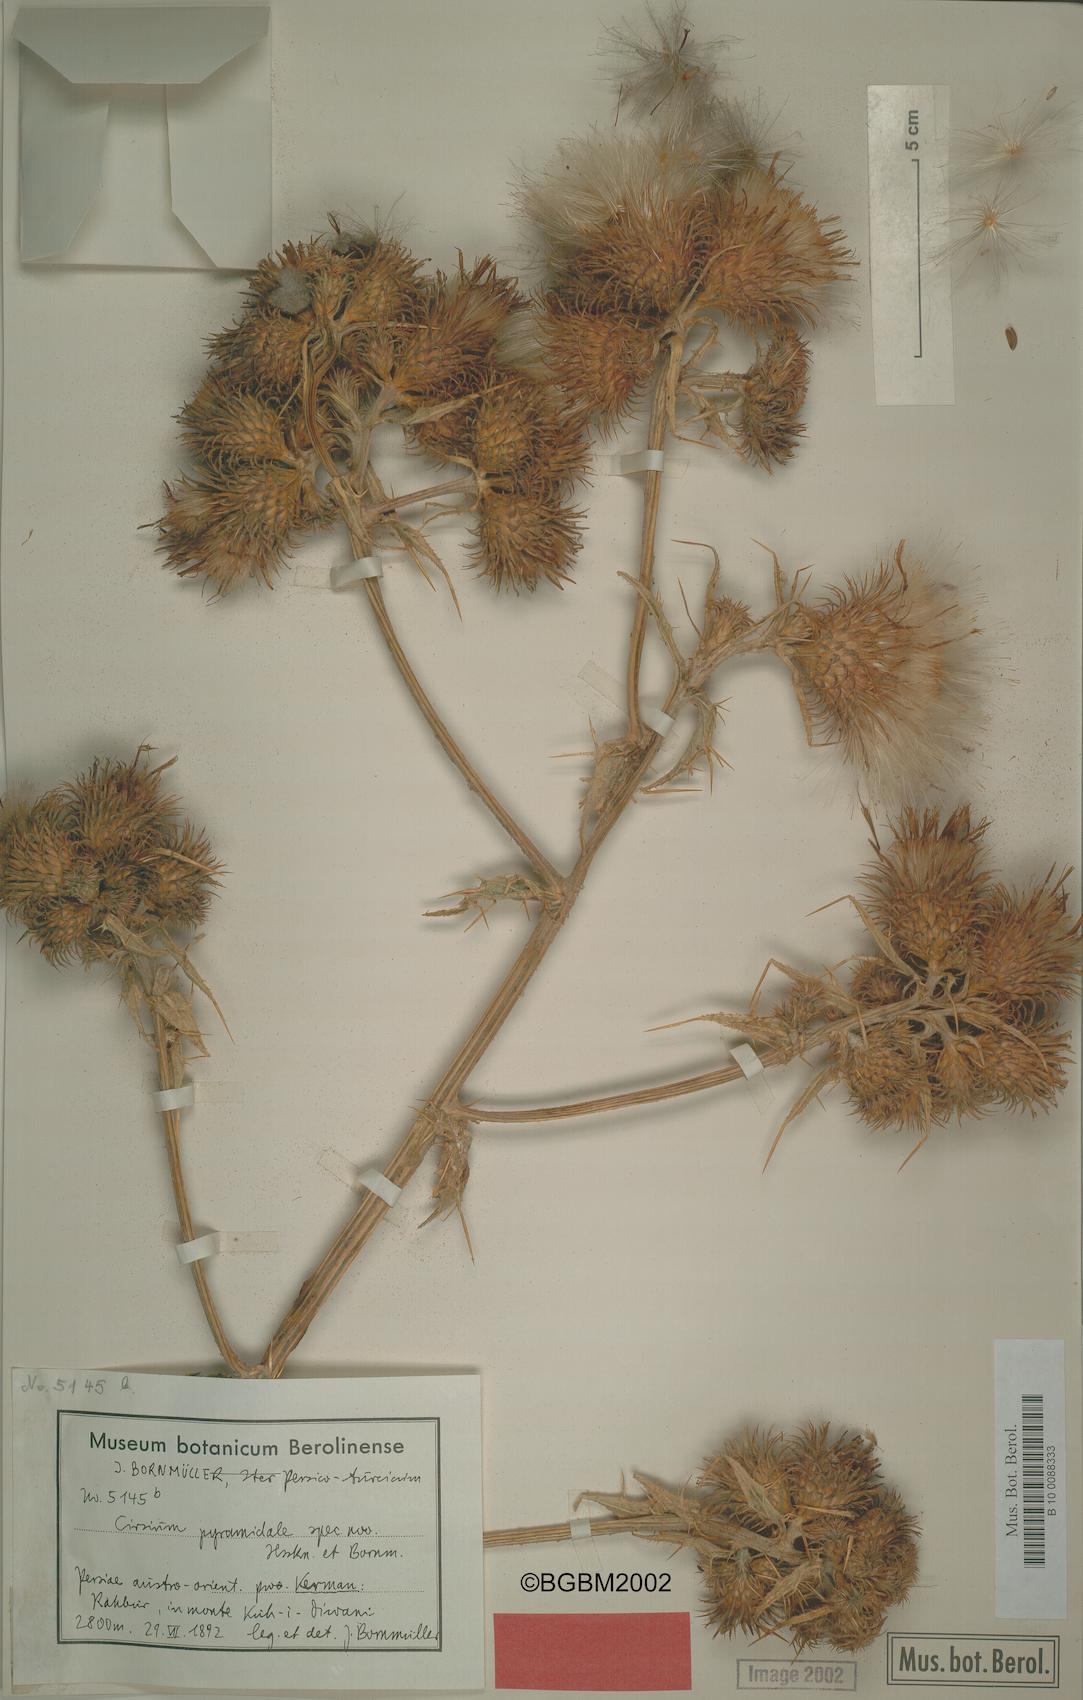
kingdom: Plantae
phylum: Tracheophyta
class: Magnoliopsida
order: Asterales
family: Asteraceae
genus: Lophiolepis
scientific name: Lophiolepis pyramidalis
